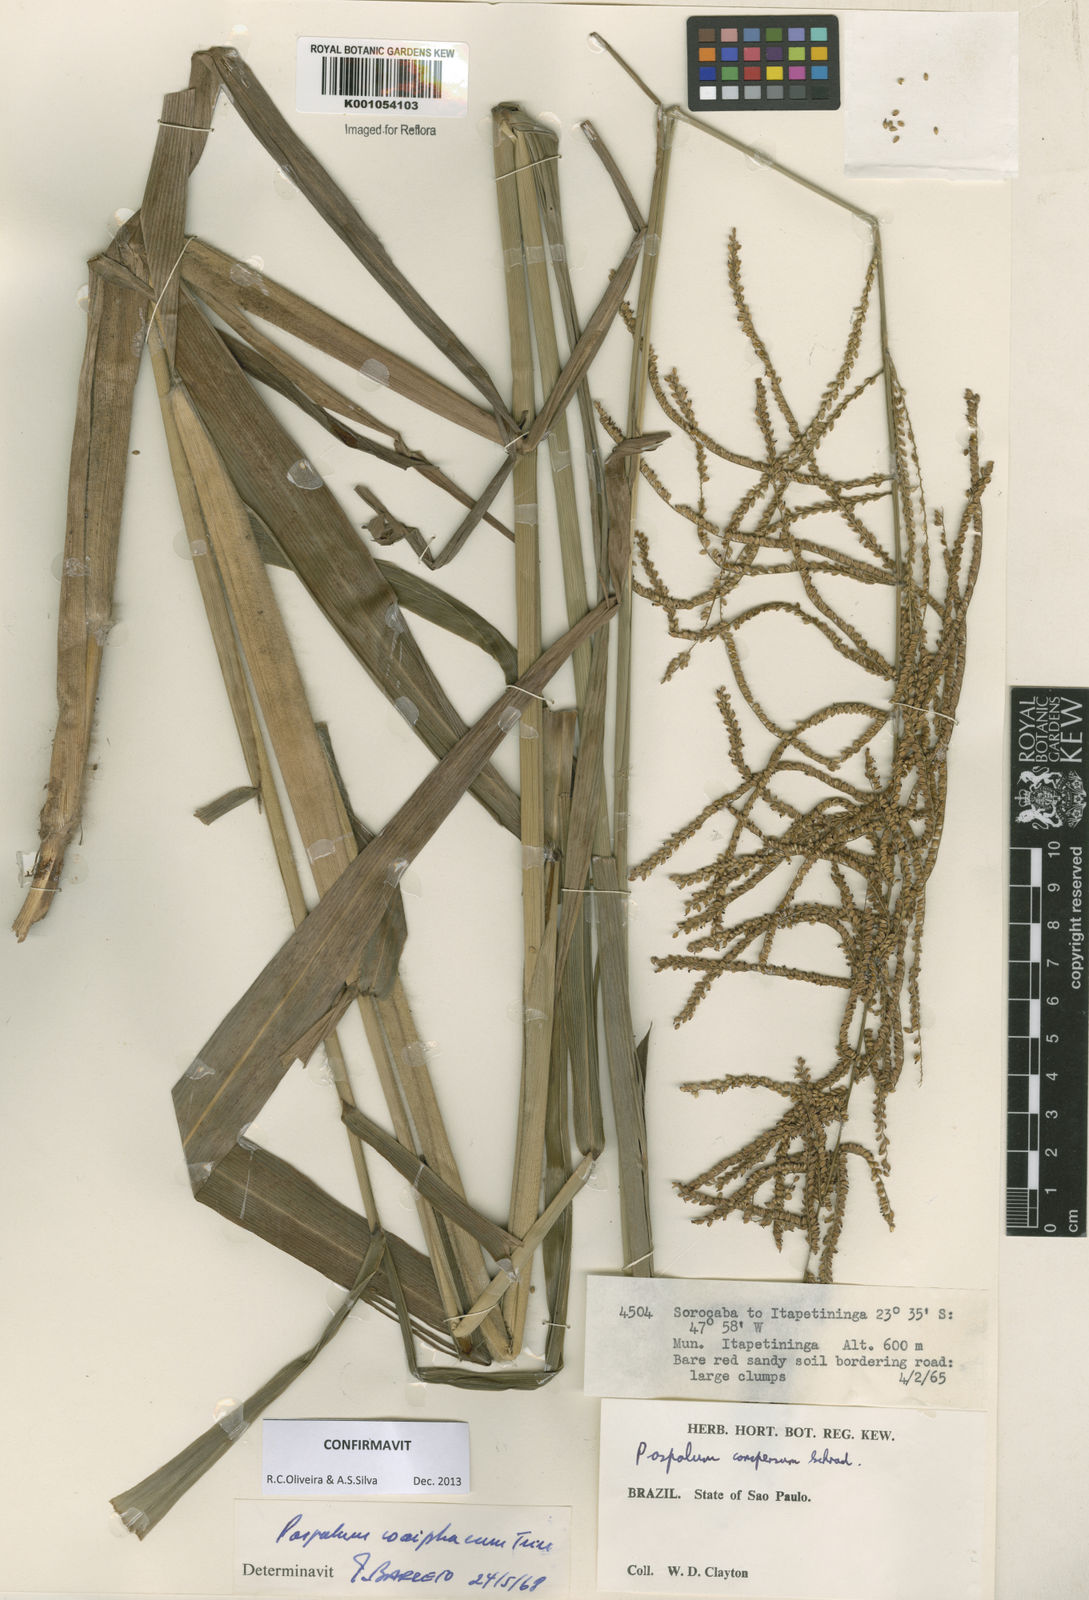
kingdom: Plantae
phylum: Tracheophyta
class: Liliopsida
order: Poales
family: Poaceae
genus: Paspalum
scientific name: Paspalum coryphaeum
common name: Emperor crowngrass
